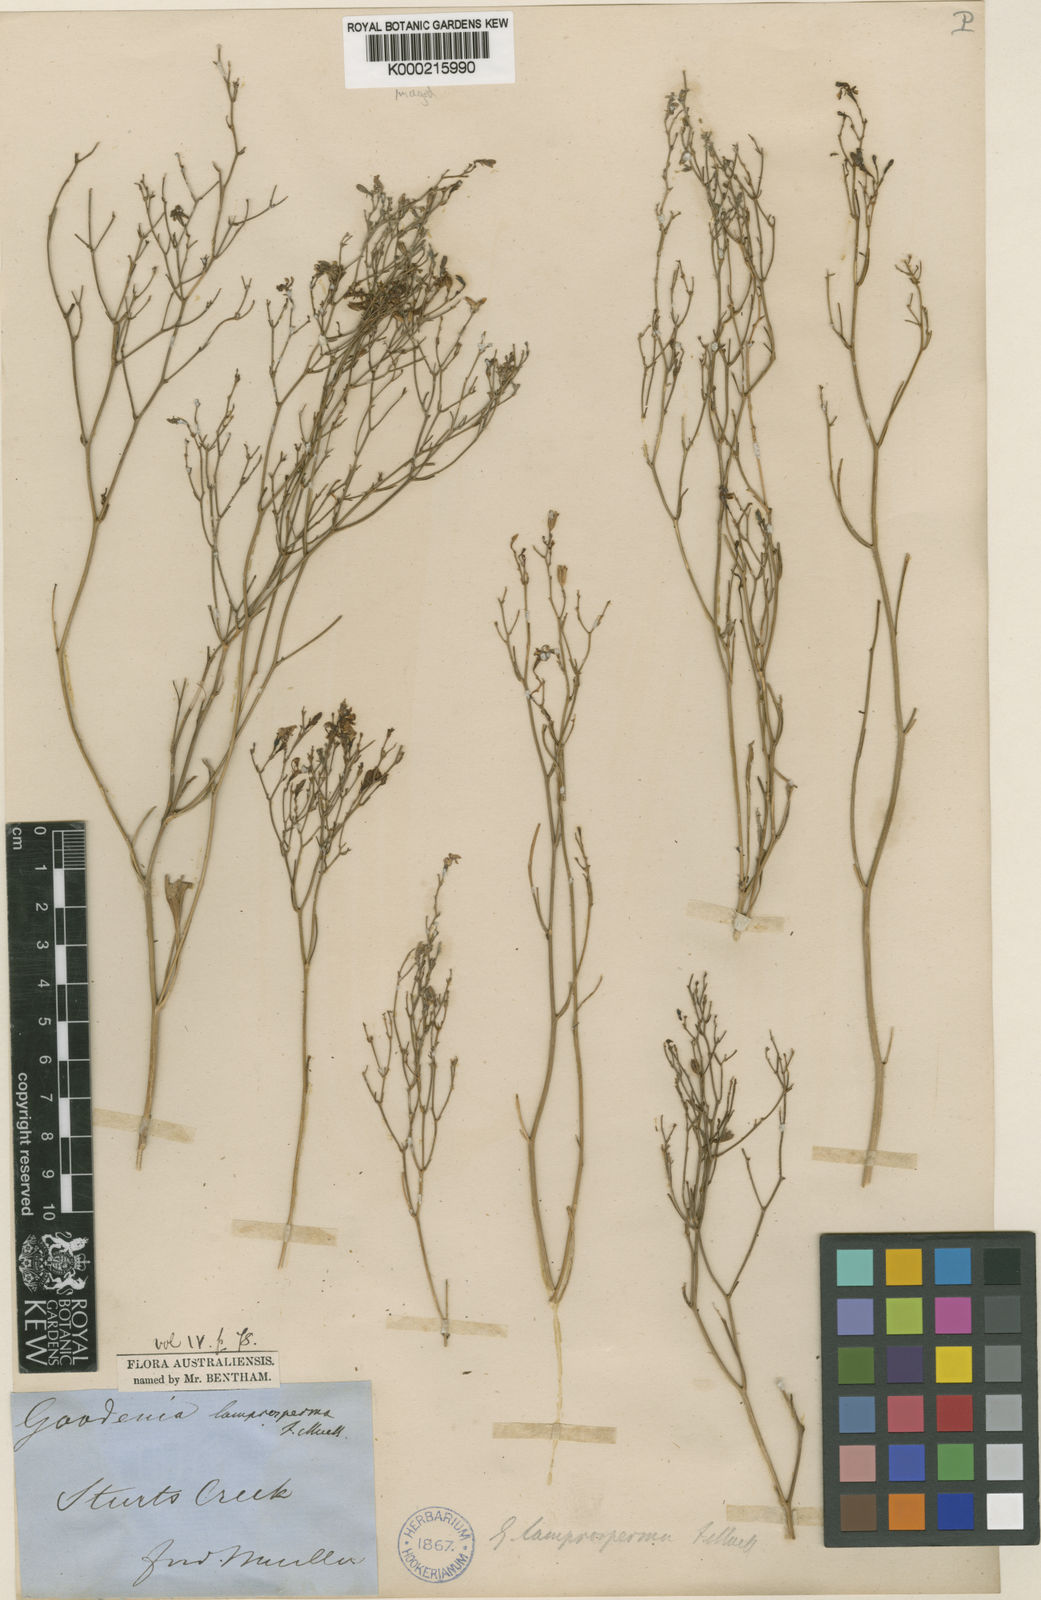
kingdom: Plantae
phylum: Tracheophyta
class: Magnoliopsida
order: Asterales
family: Goodeniaceae
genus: Goodenia
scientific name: Goodenia lamprosperma
